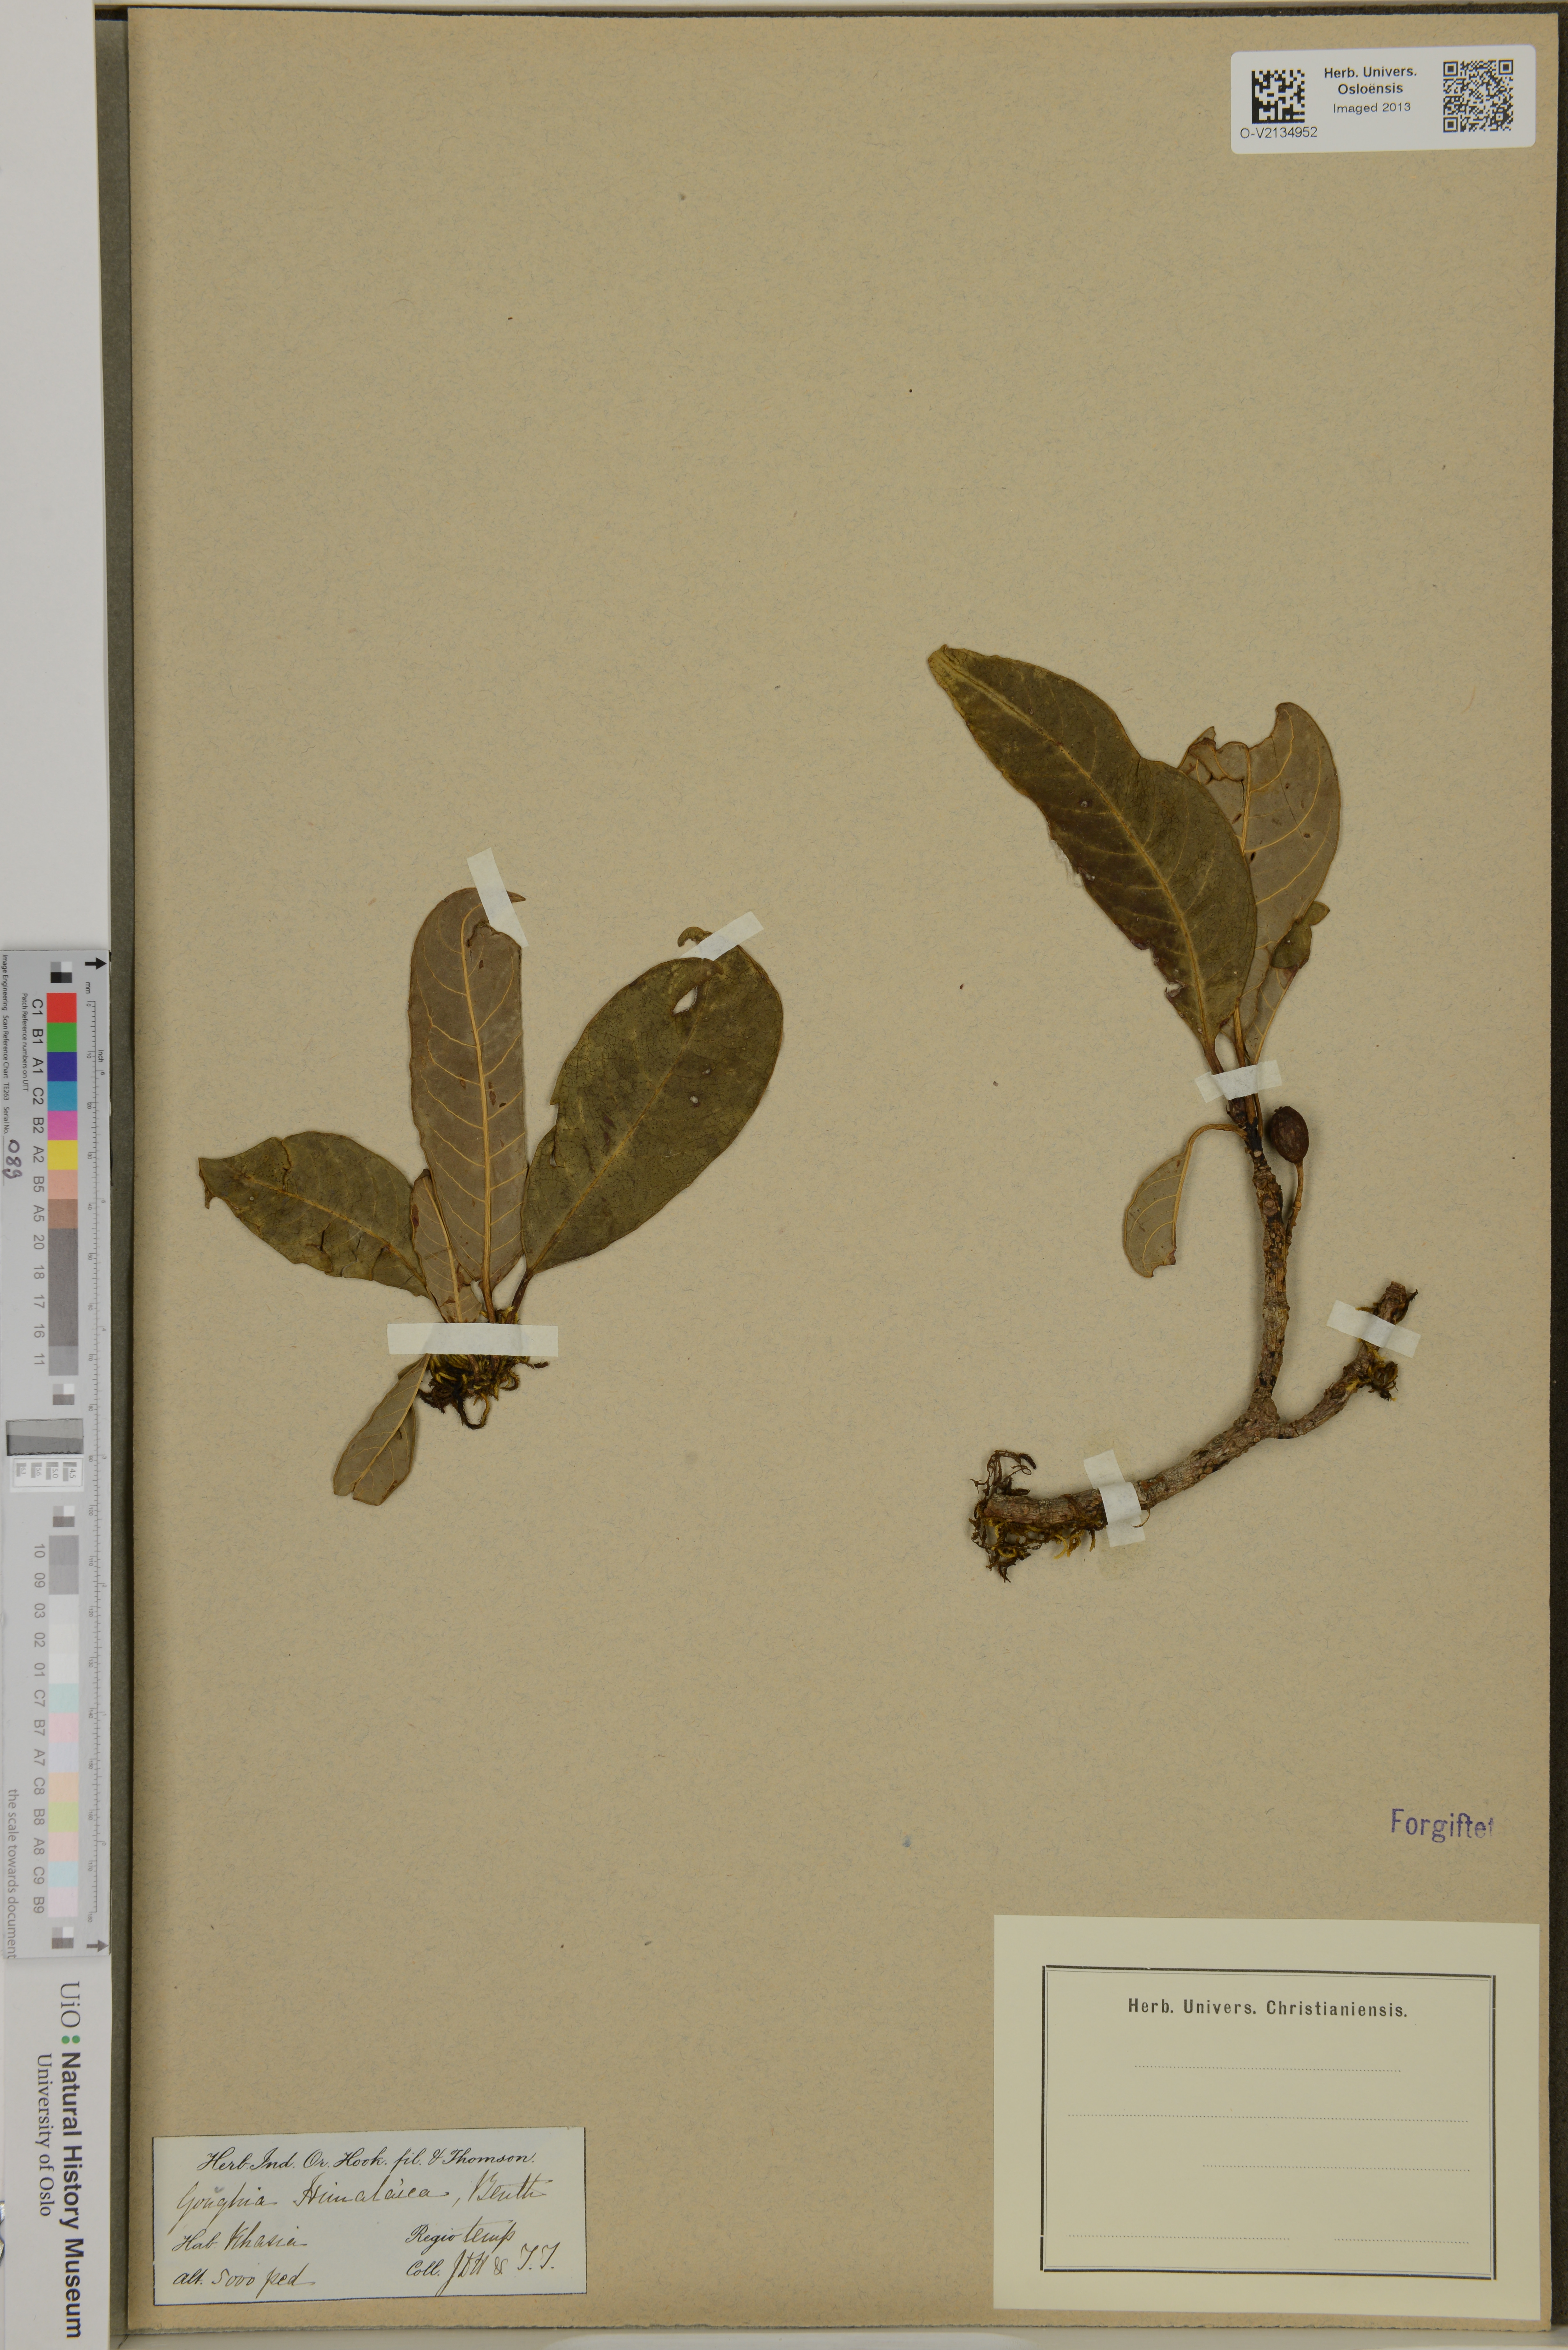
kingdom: Plantae
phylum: Tracheophyta
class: Magnoliopsida
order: Saxifragales
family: Daphniphyllaceae
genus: Daphniphyllum
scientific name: Daphniphyllum
